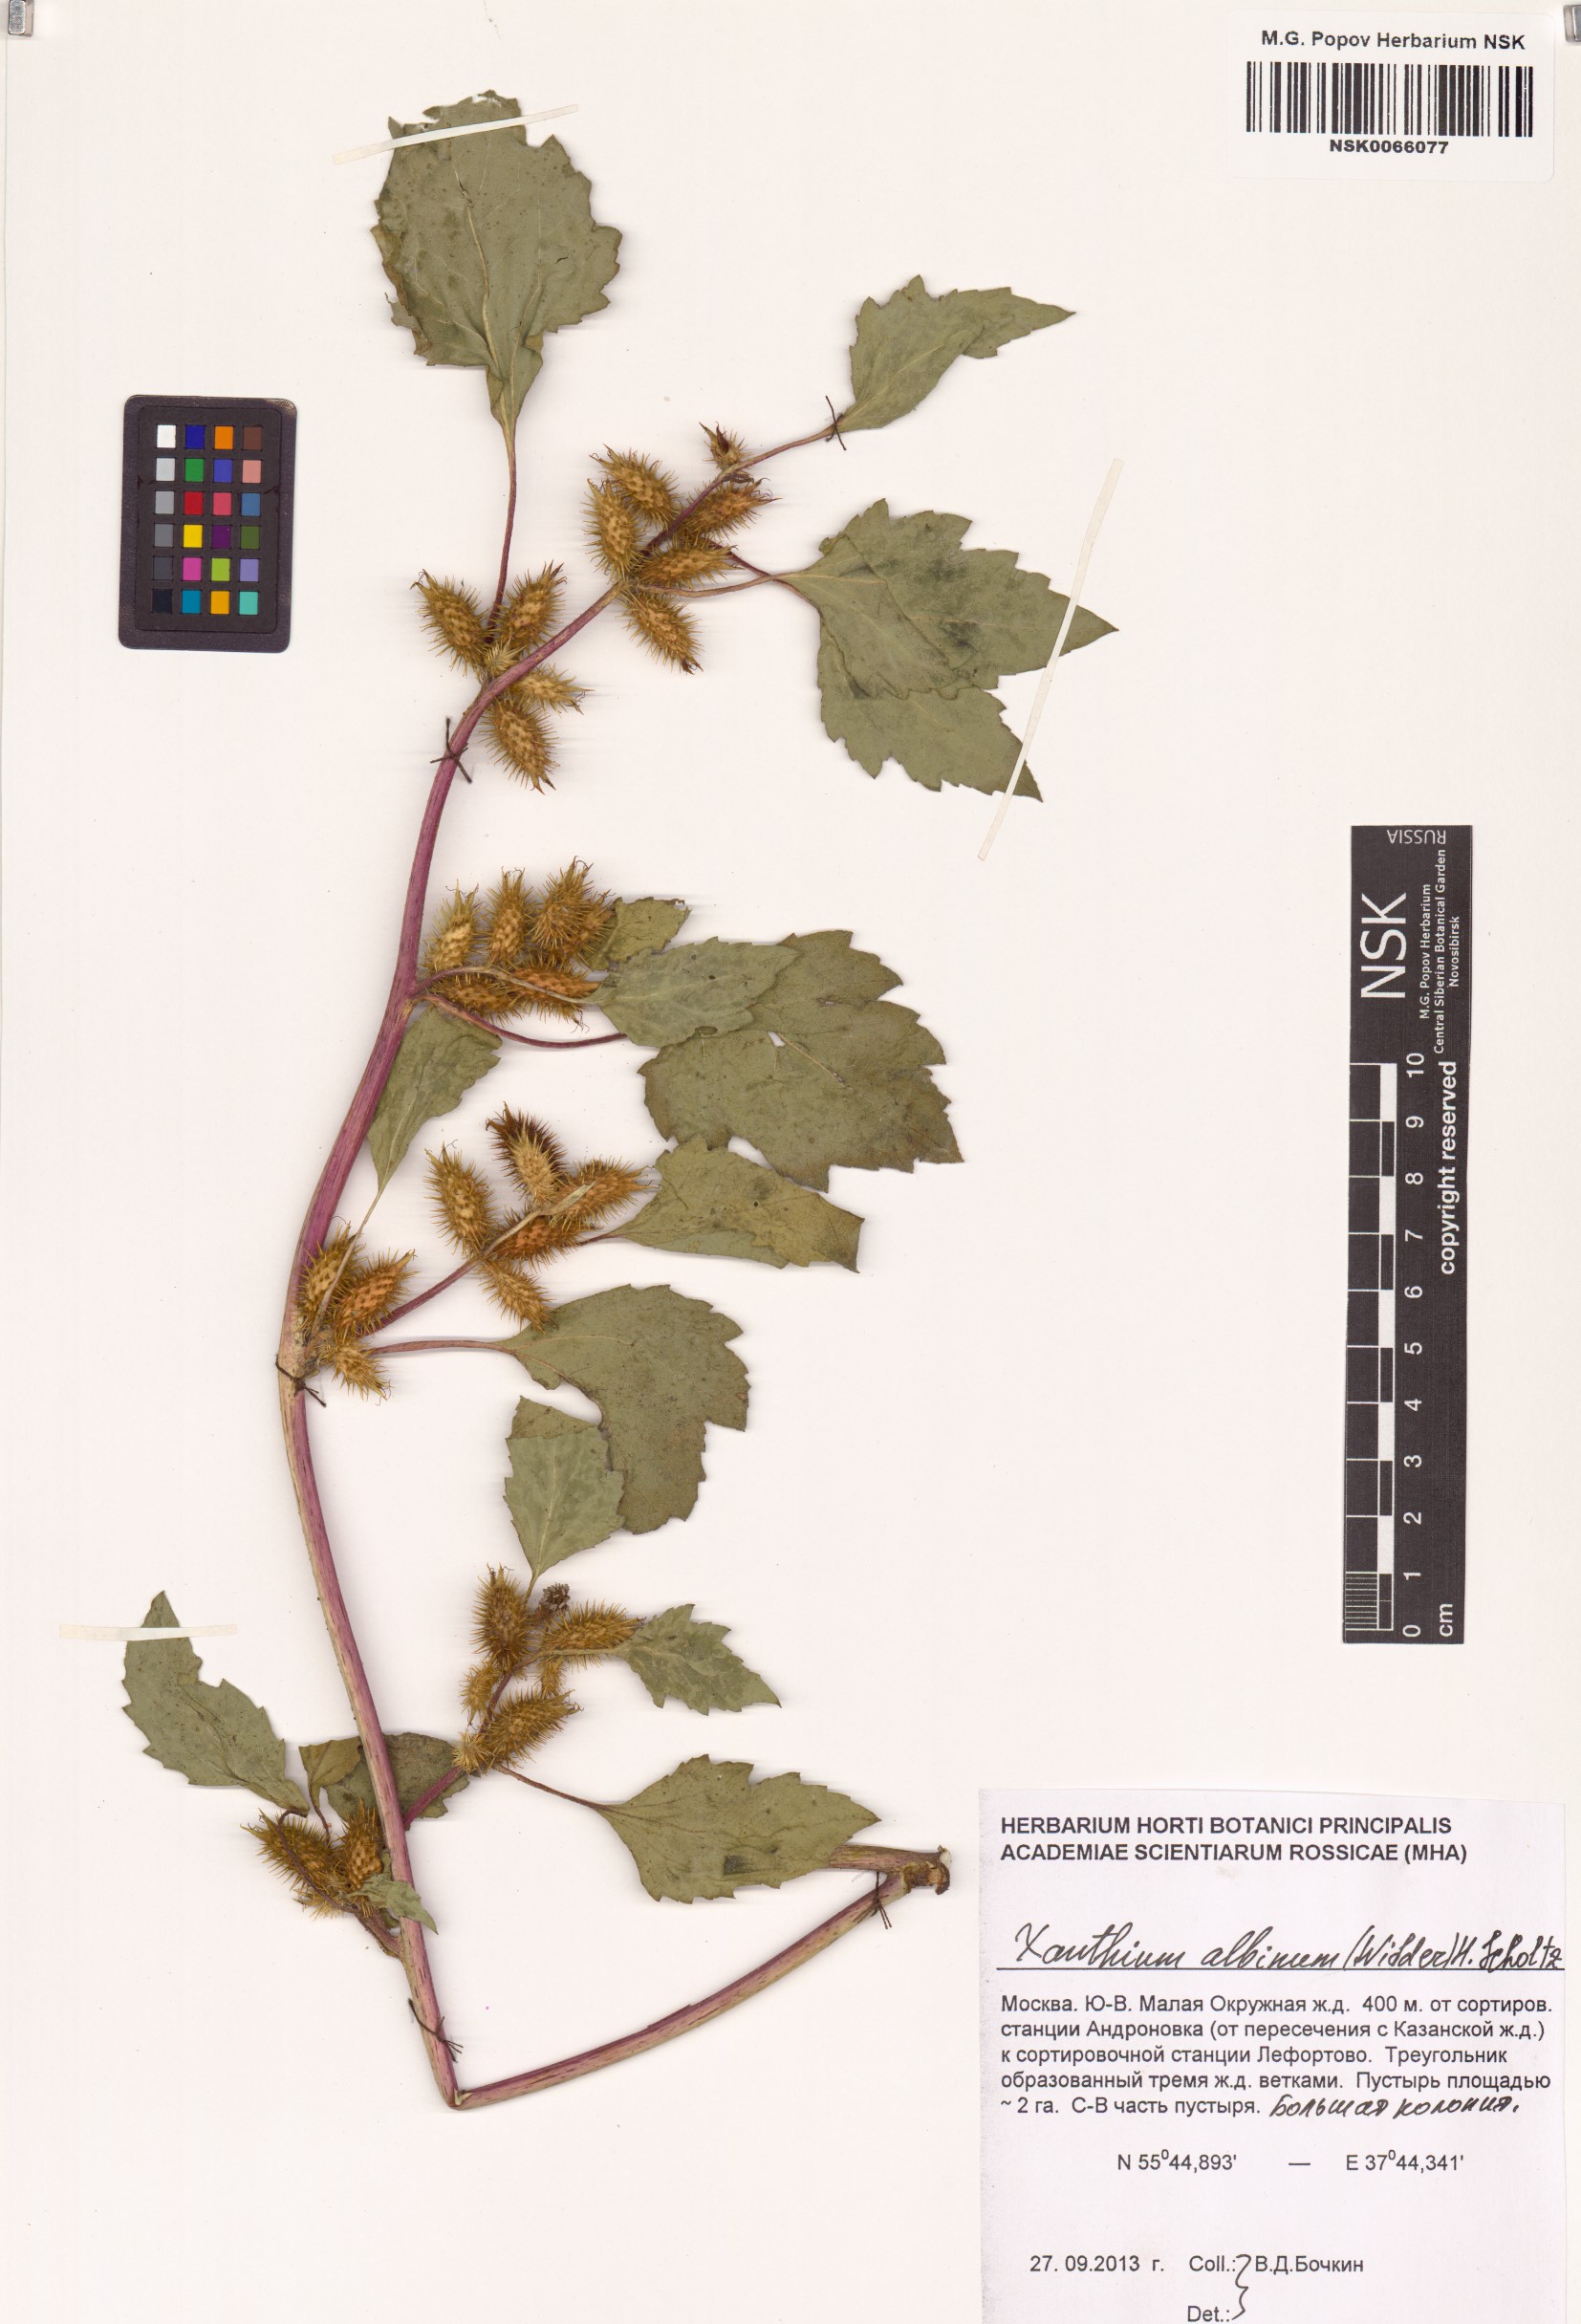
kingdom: Plantae
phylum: Tracheophyta
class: Magnoliopsida
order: Asterales
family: Asteraceae
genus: Xanthium
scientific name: Xanthium orientale
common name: Californian burr
